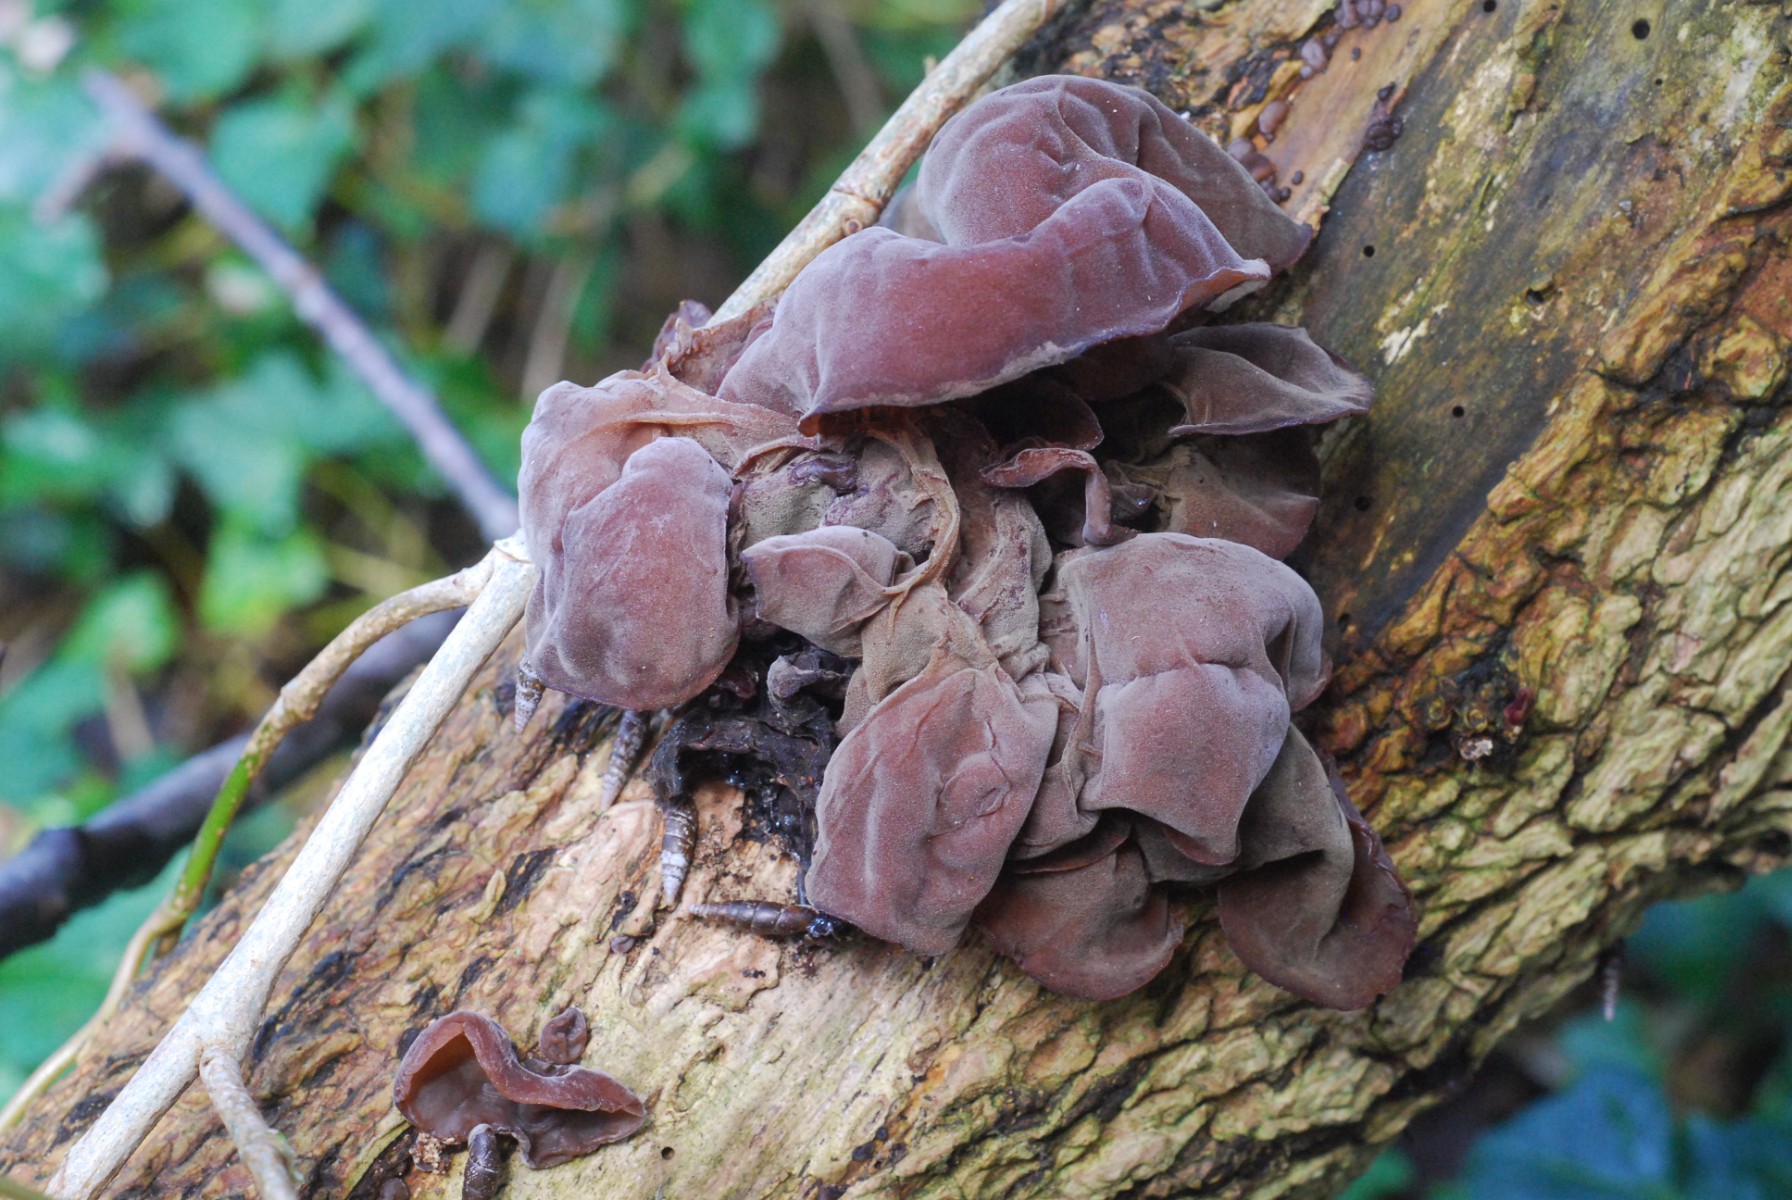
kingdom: Fungi
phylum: Basidiomycota
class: Agaricomycetes
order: Auriculariales
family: Auriculariaceae
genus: Auricularia
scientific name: Auricularia auricula-judae
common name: almindelig judasøre
